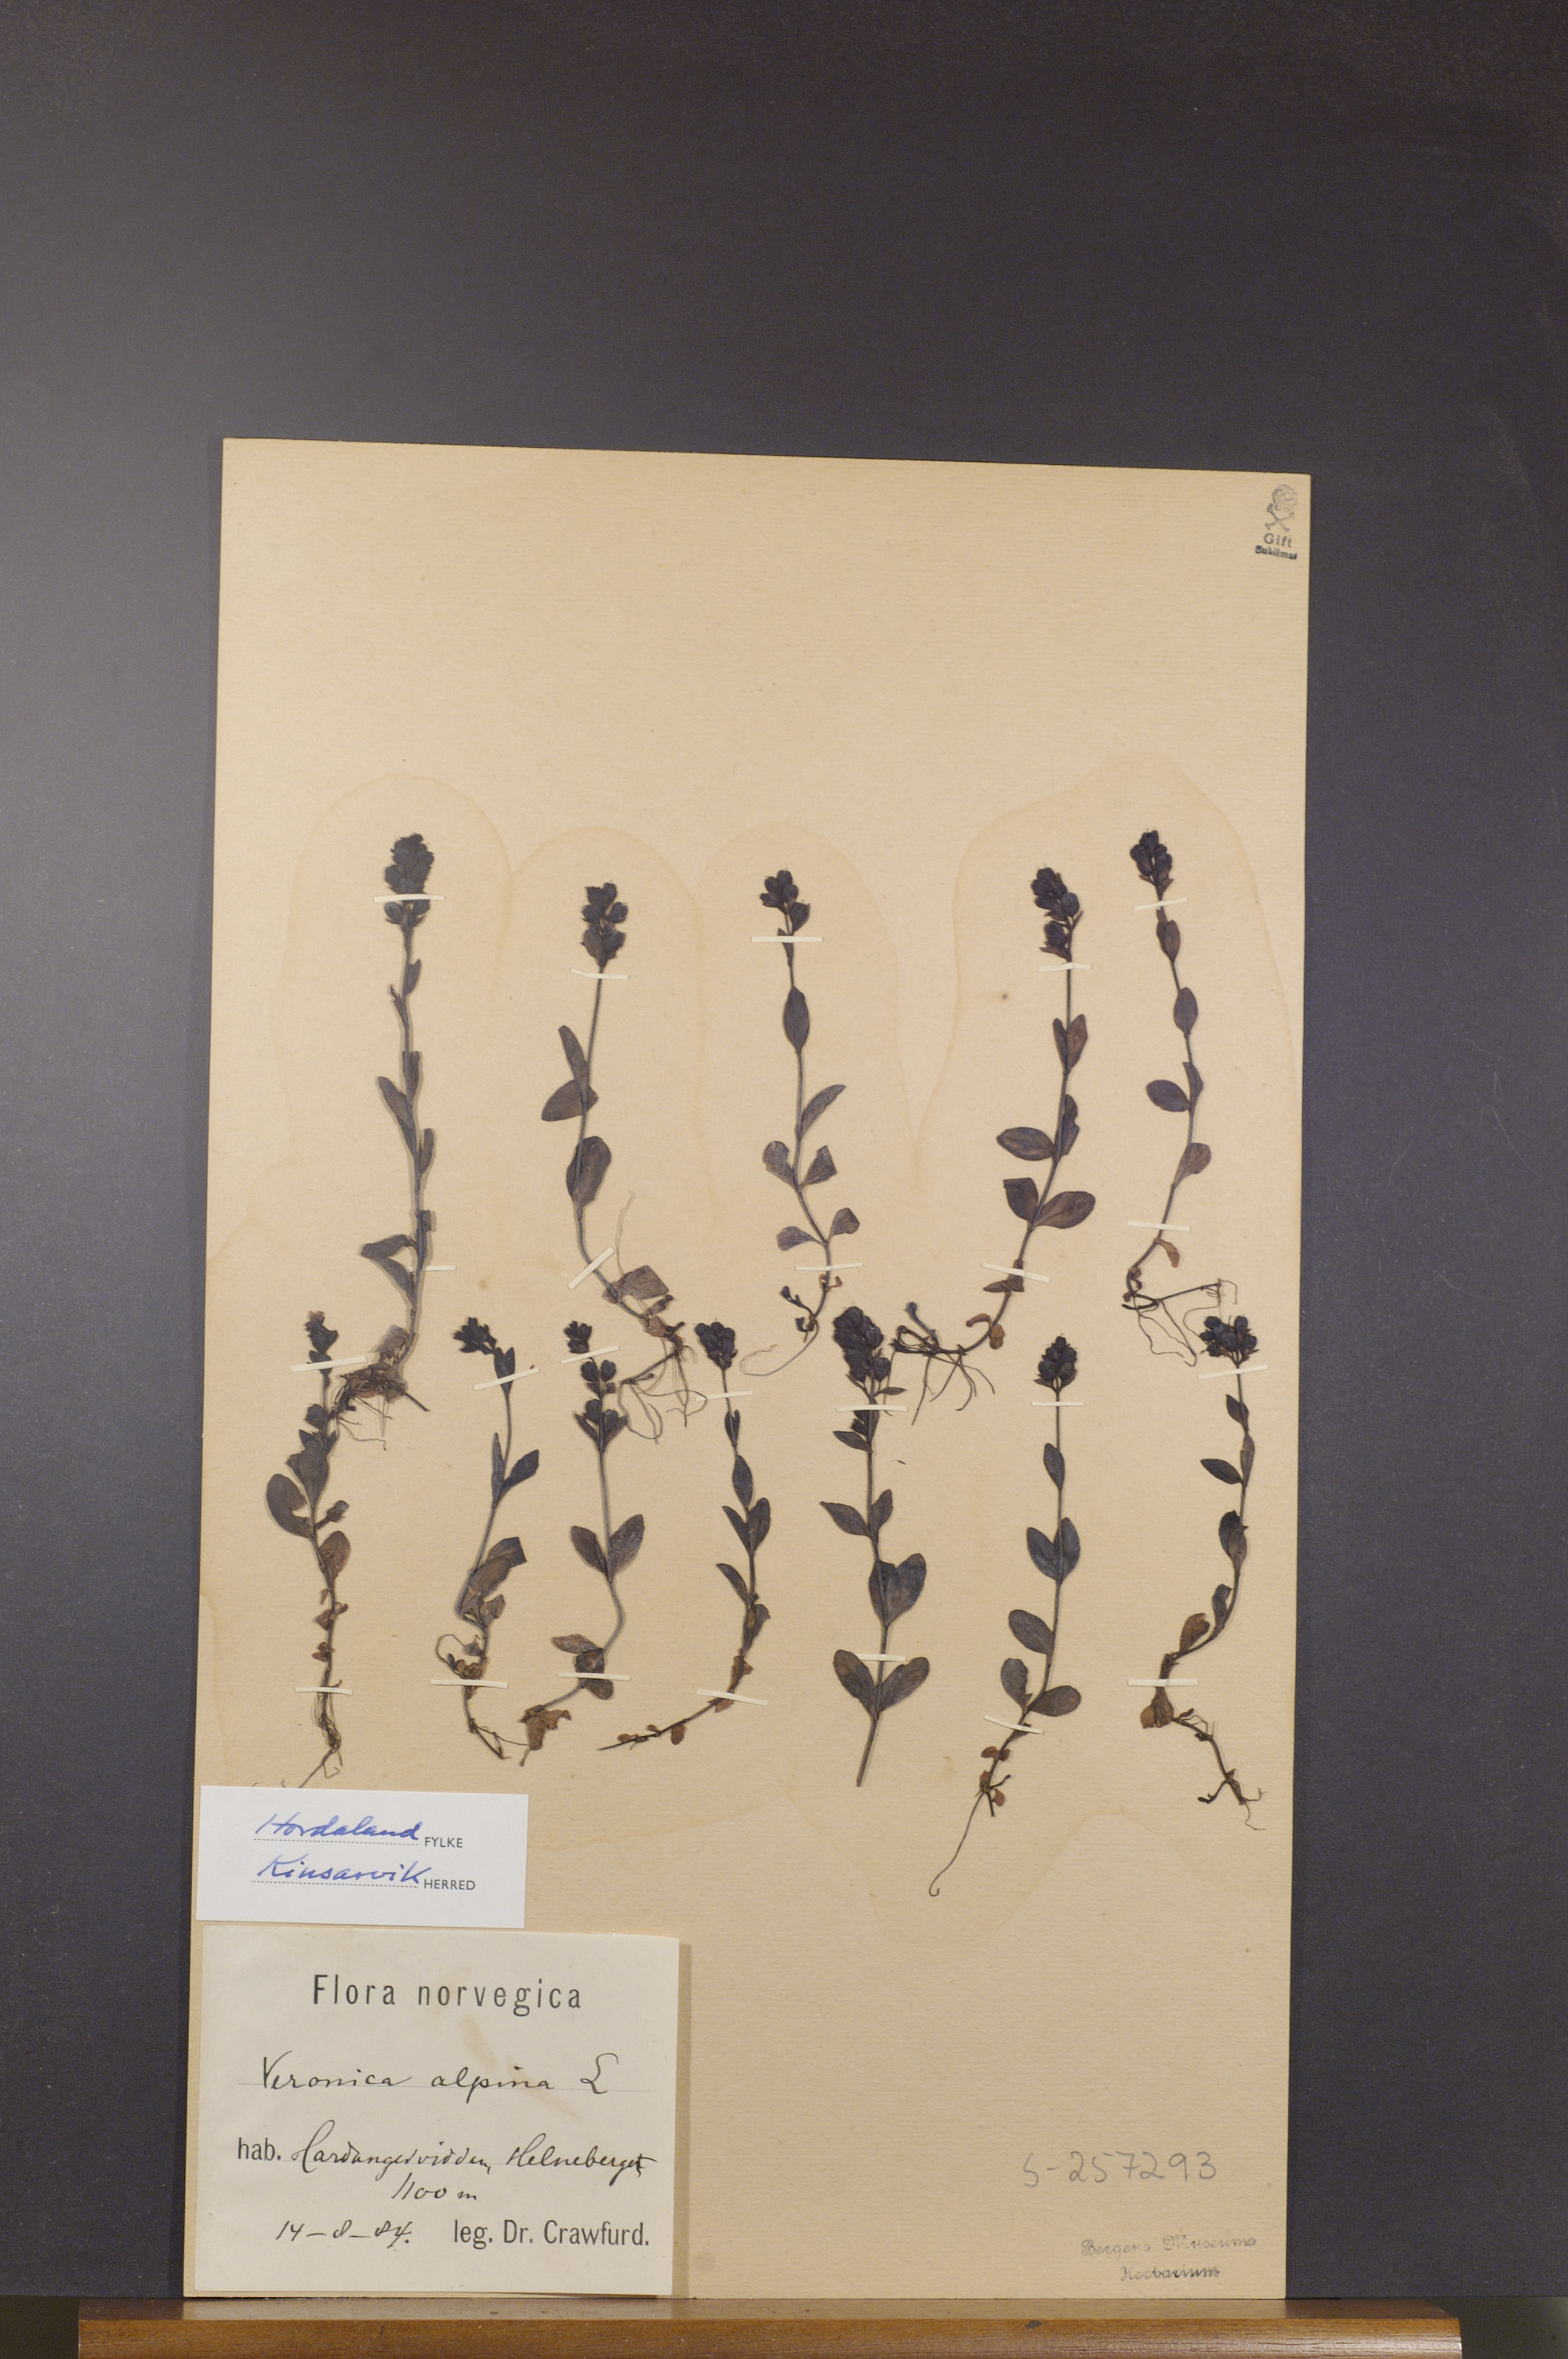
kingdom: Plantae
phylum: Tracheophyta
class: Magnoliopsida
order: Lamiales
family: Plantaginaceae
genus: Veronica
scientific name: Veronica alpina
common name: Alpine speedwell
